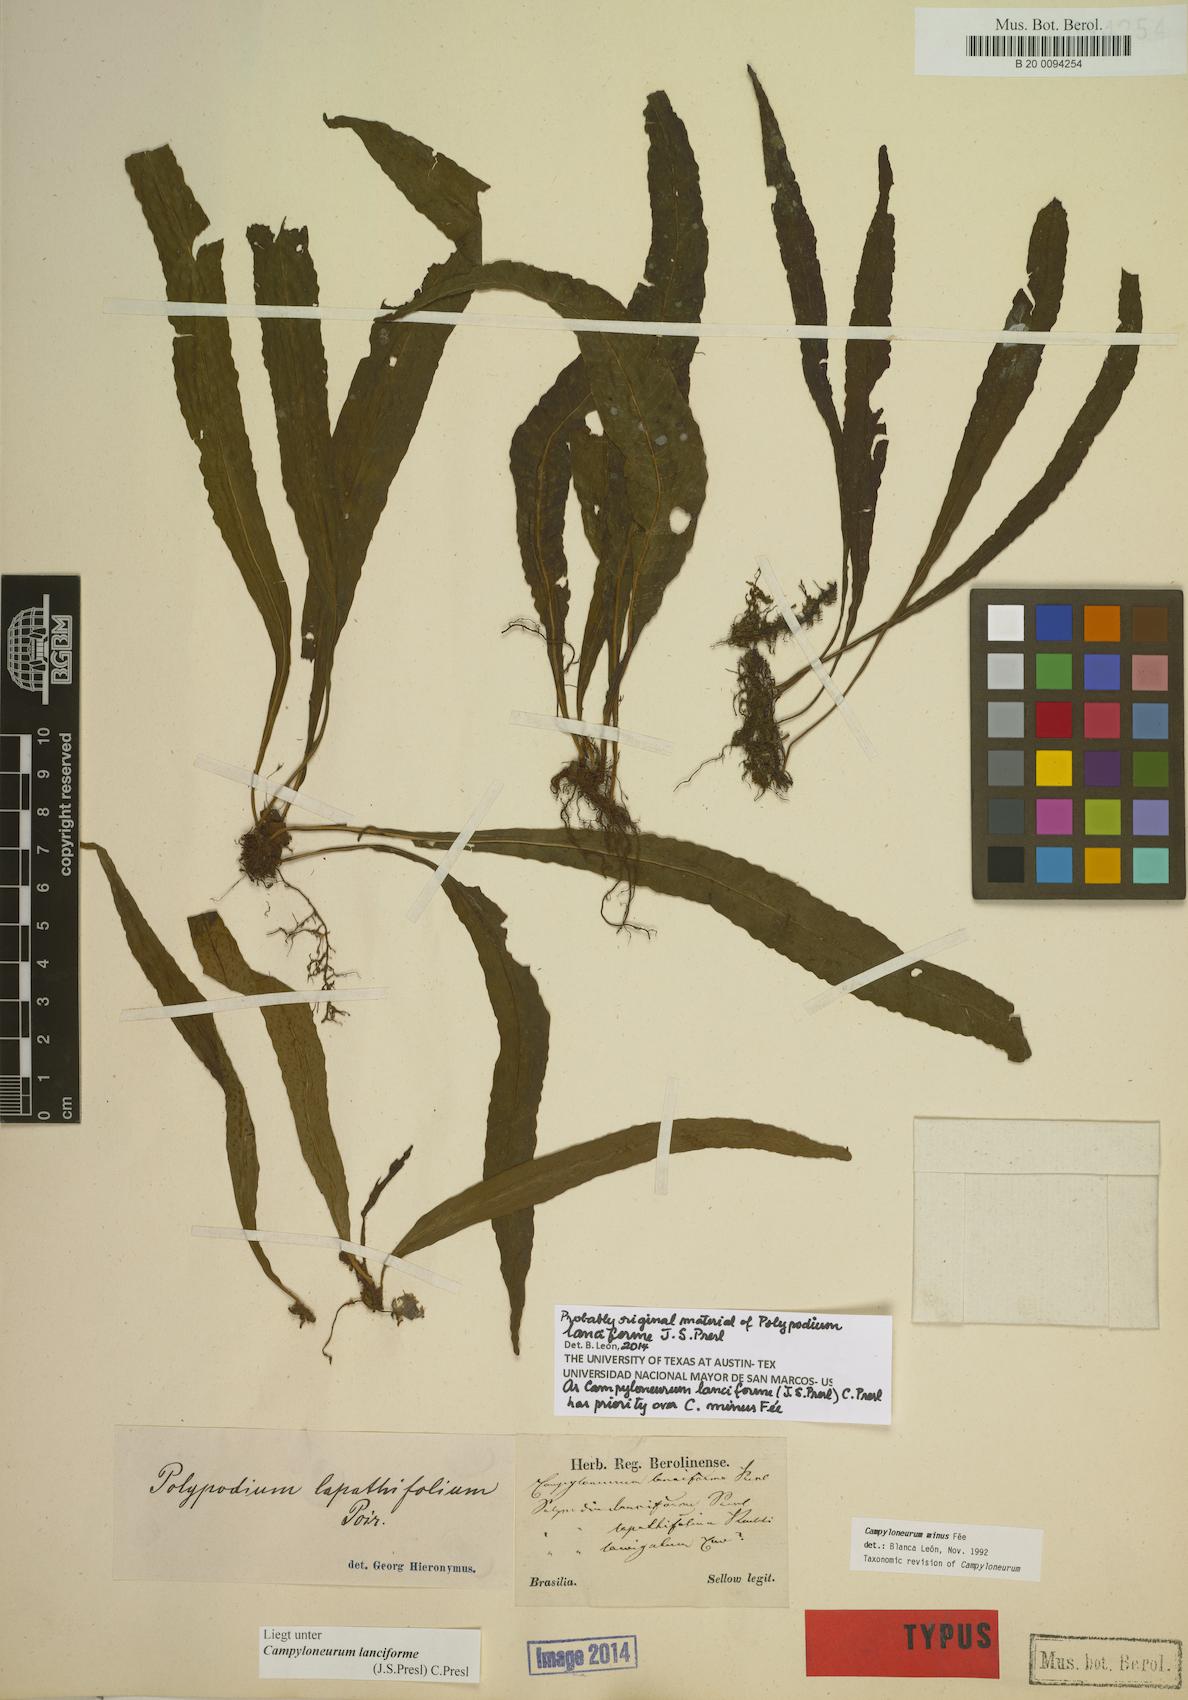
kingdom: Plantae
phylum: Tracheophyta
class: Polypodiopsida
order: Polypodiales
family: Polypodiaceae
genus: Campyloneurum
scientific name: Campyloneurum aphanophlebium
